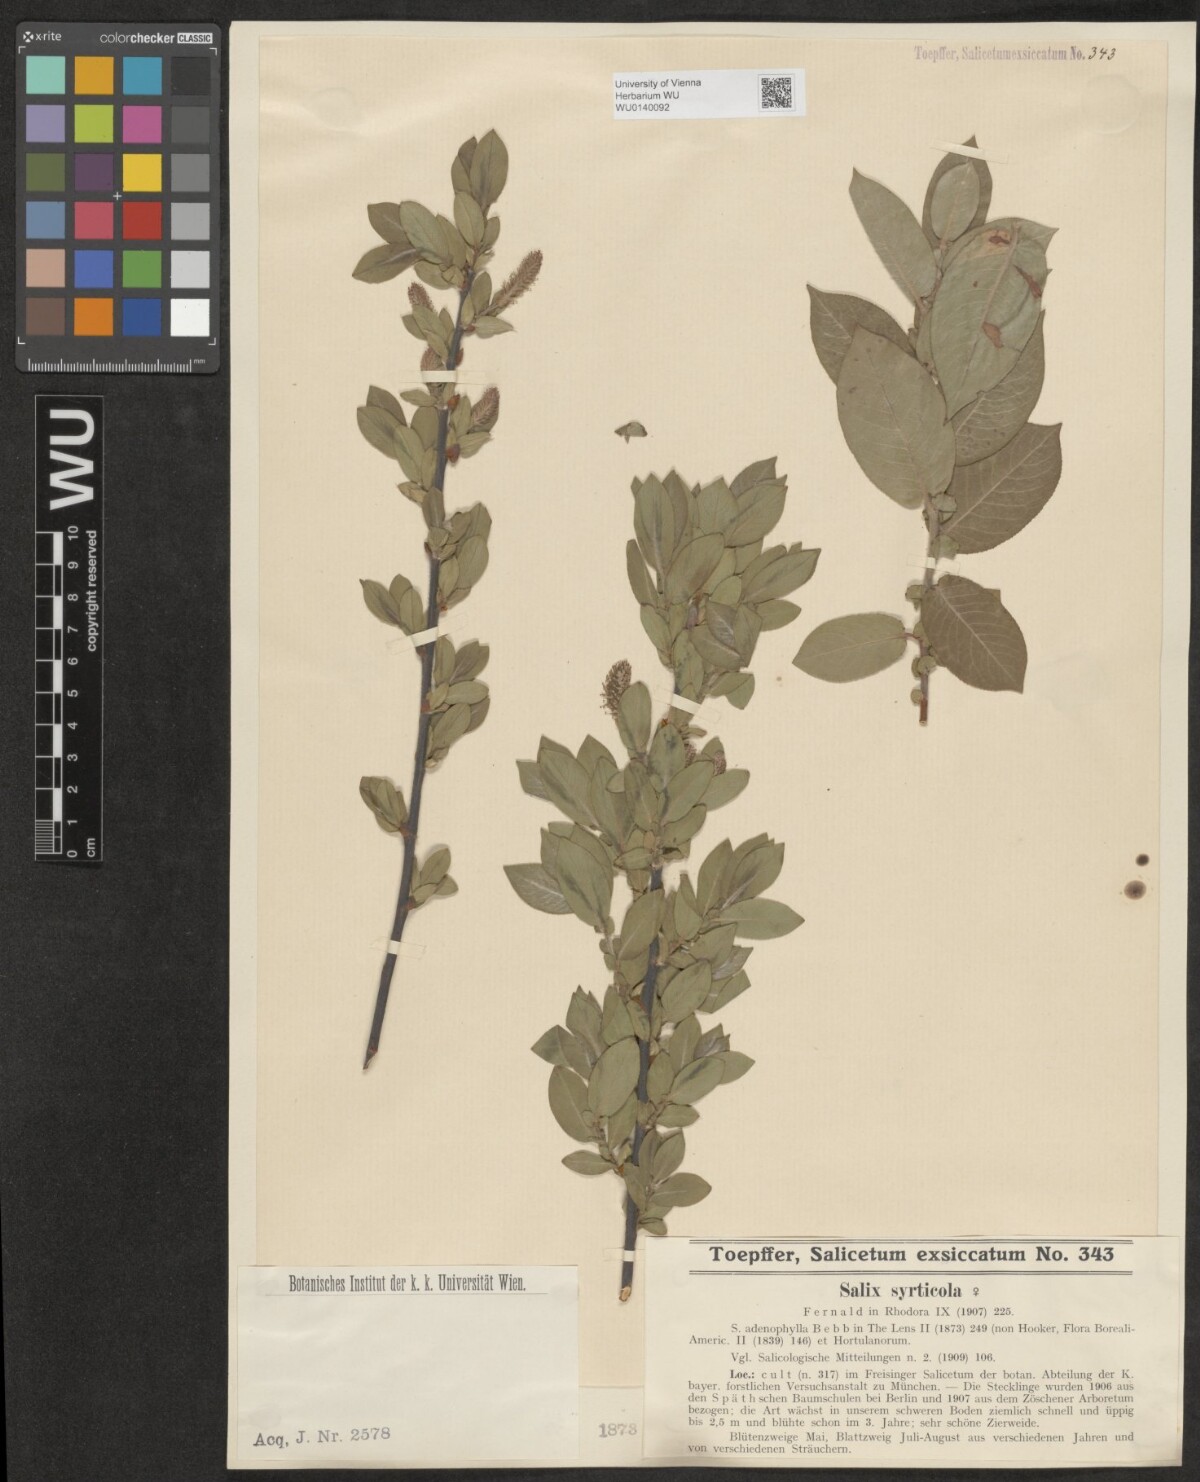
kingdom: Plantae
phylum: Tracheophyta
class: Magnoliopsida
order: Malpighiales
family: Salicaceae
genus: Salix
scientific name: Salix cordata
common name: Heart-leaf willow
